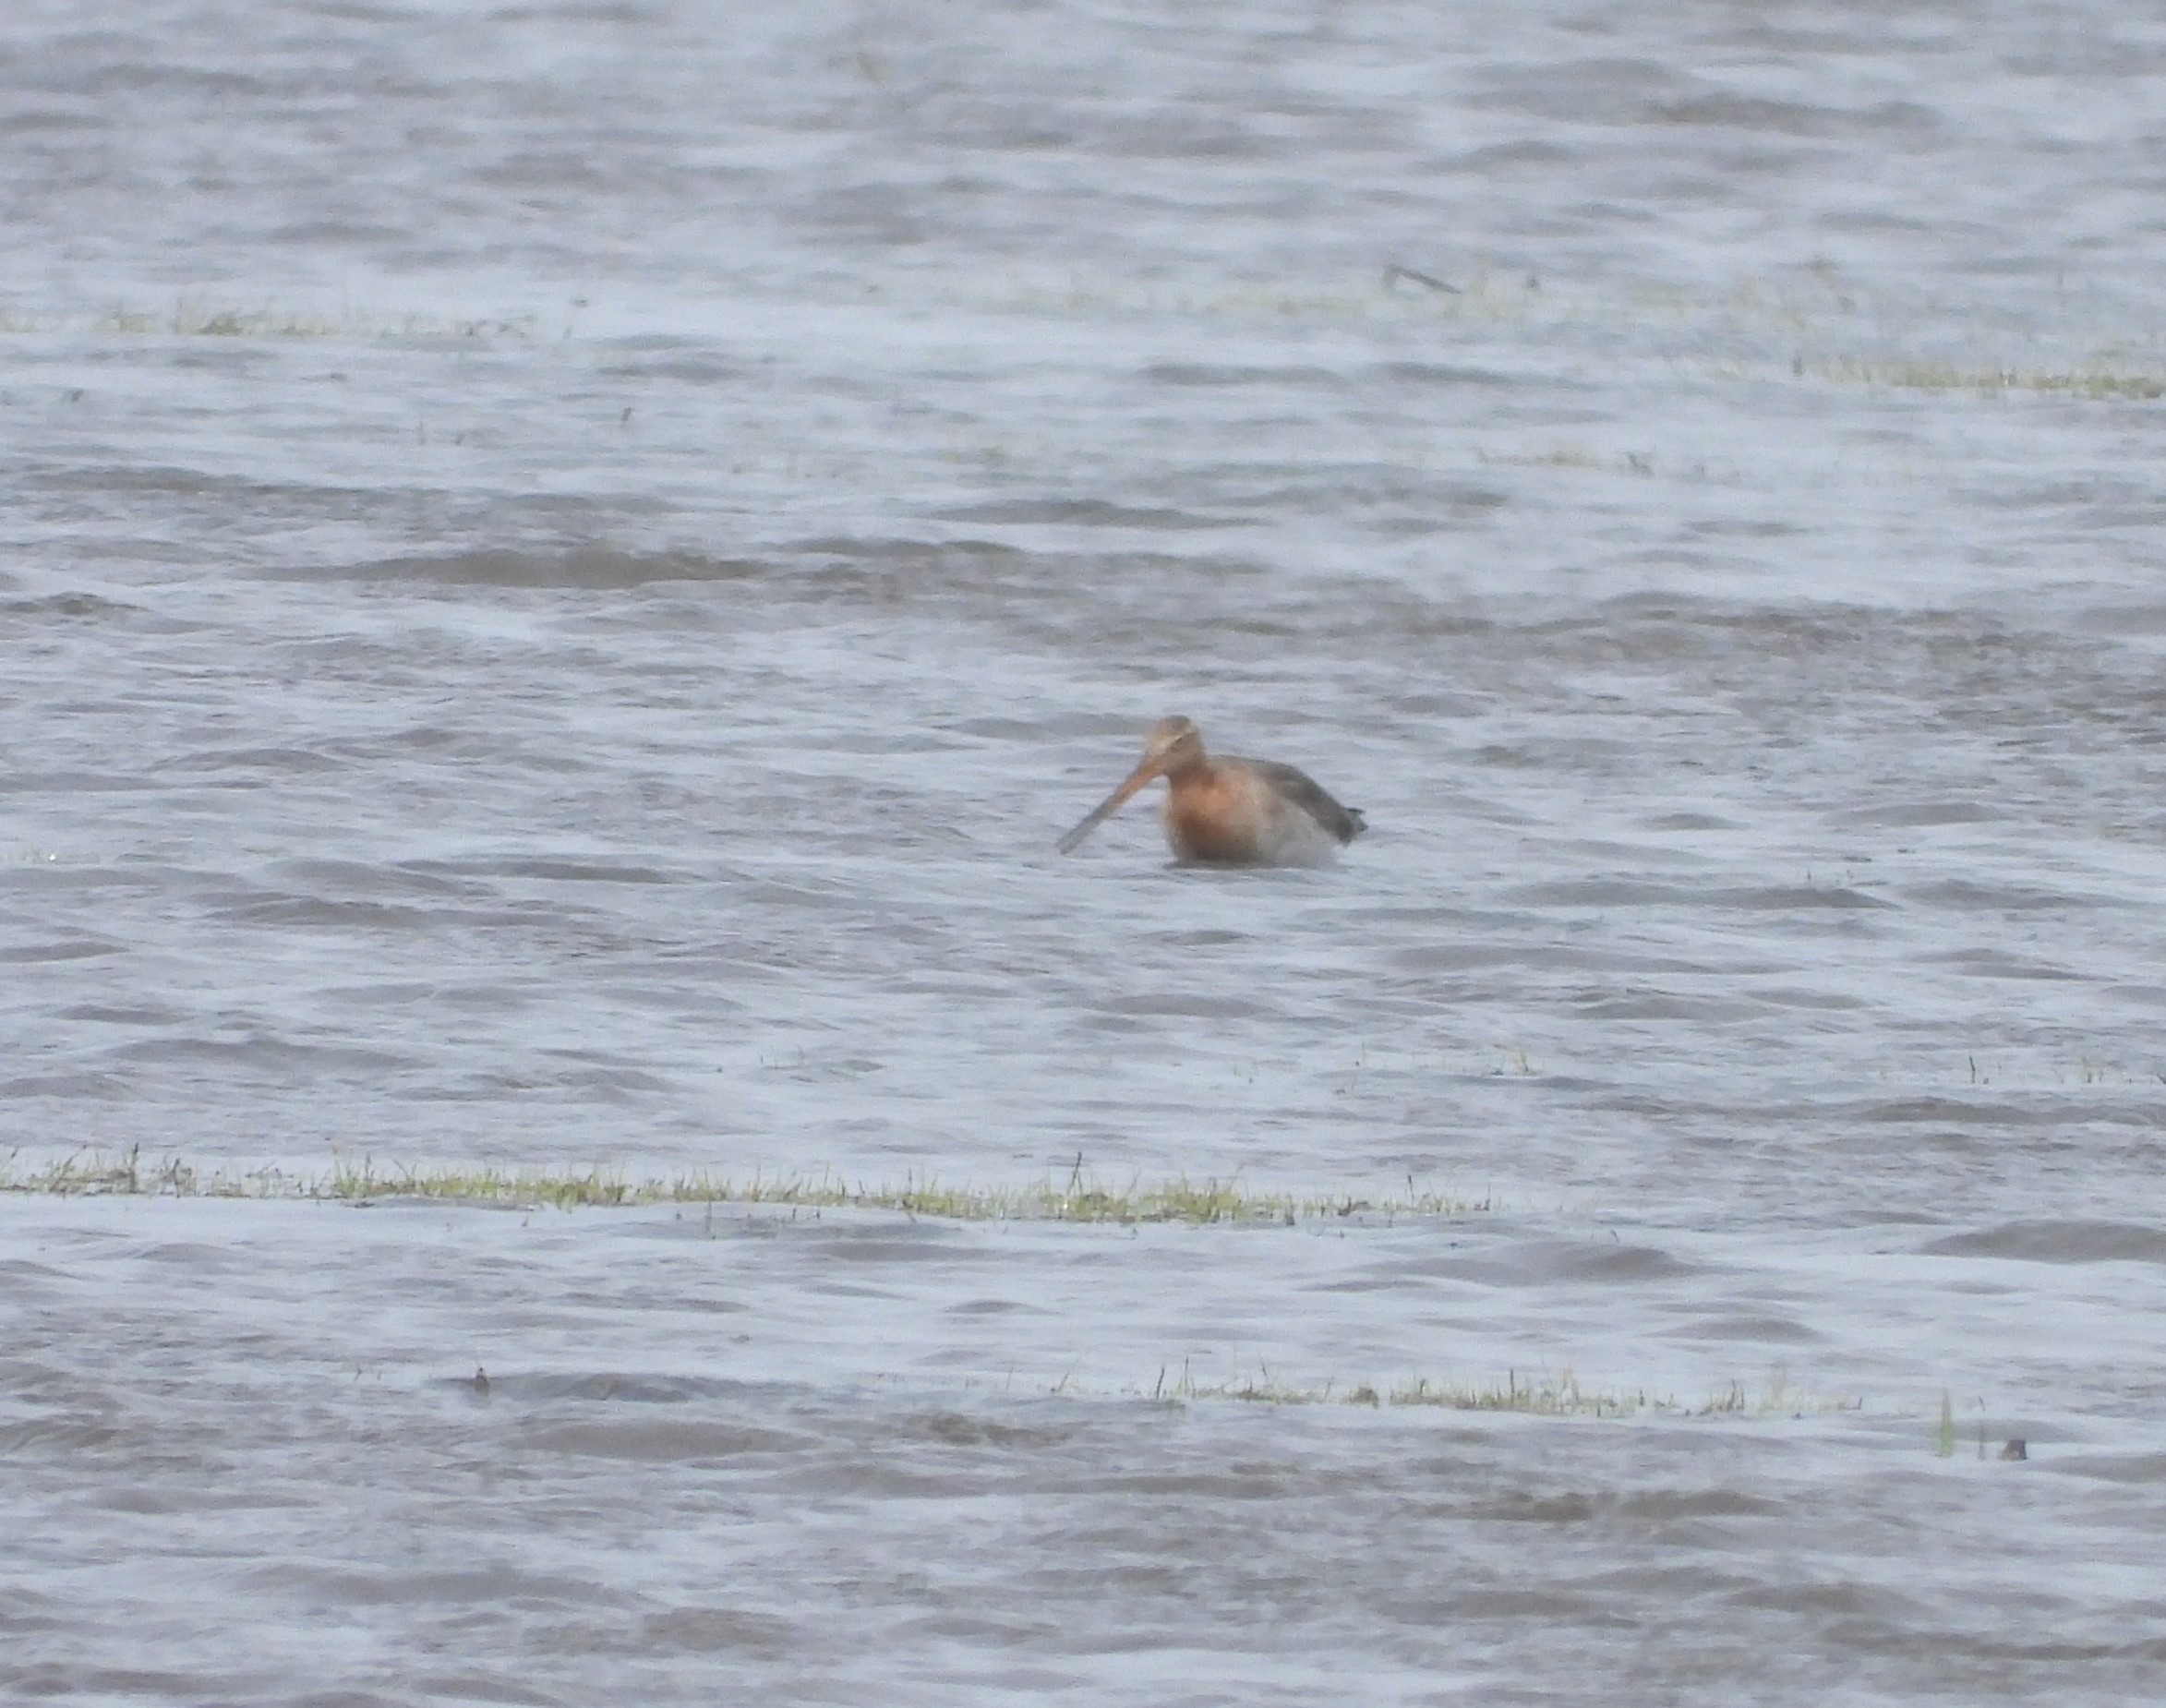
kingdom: Animalia
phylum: Chordata
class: Aves
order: Charadriiformes
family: Scolopacidae
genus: Limosa
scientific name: Limosa limosa
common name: Stor kobbersneppe
